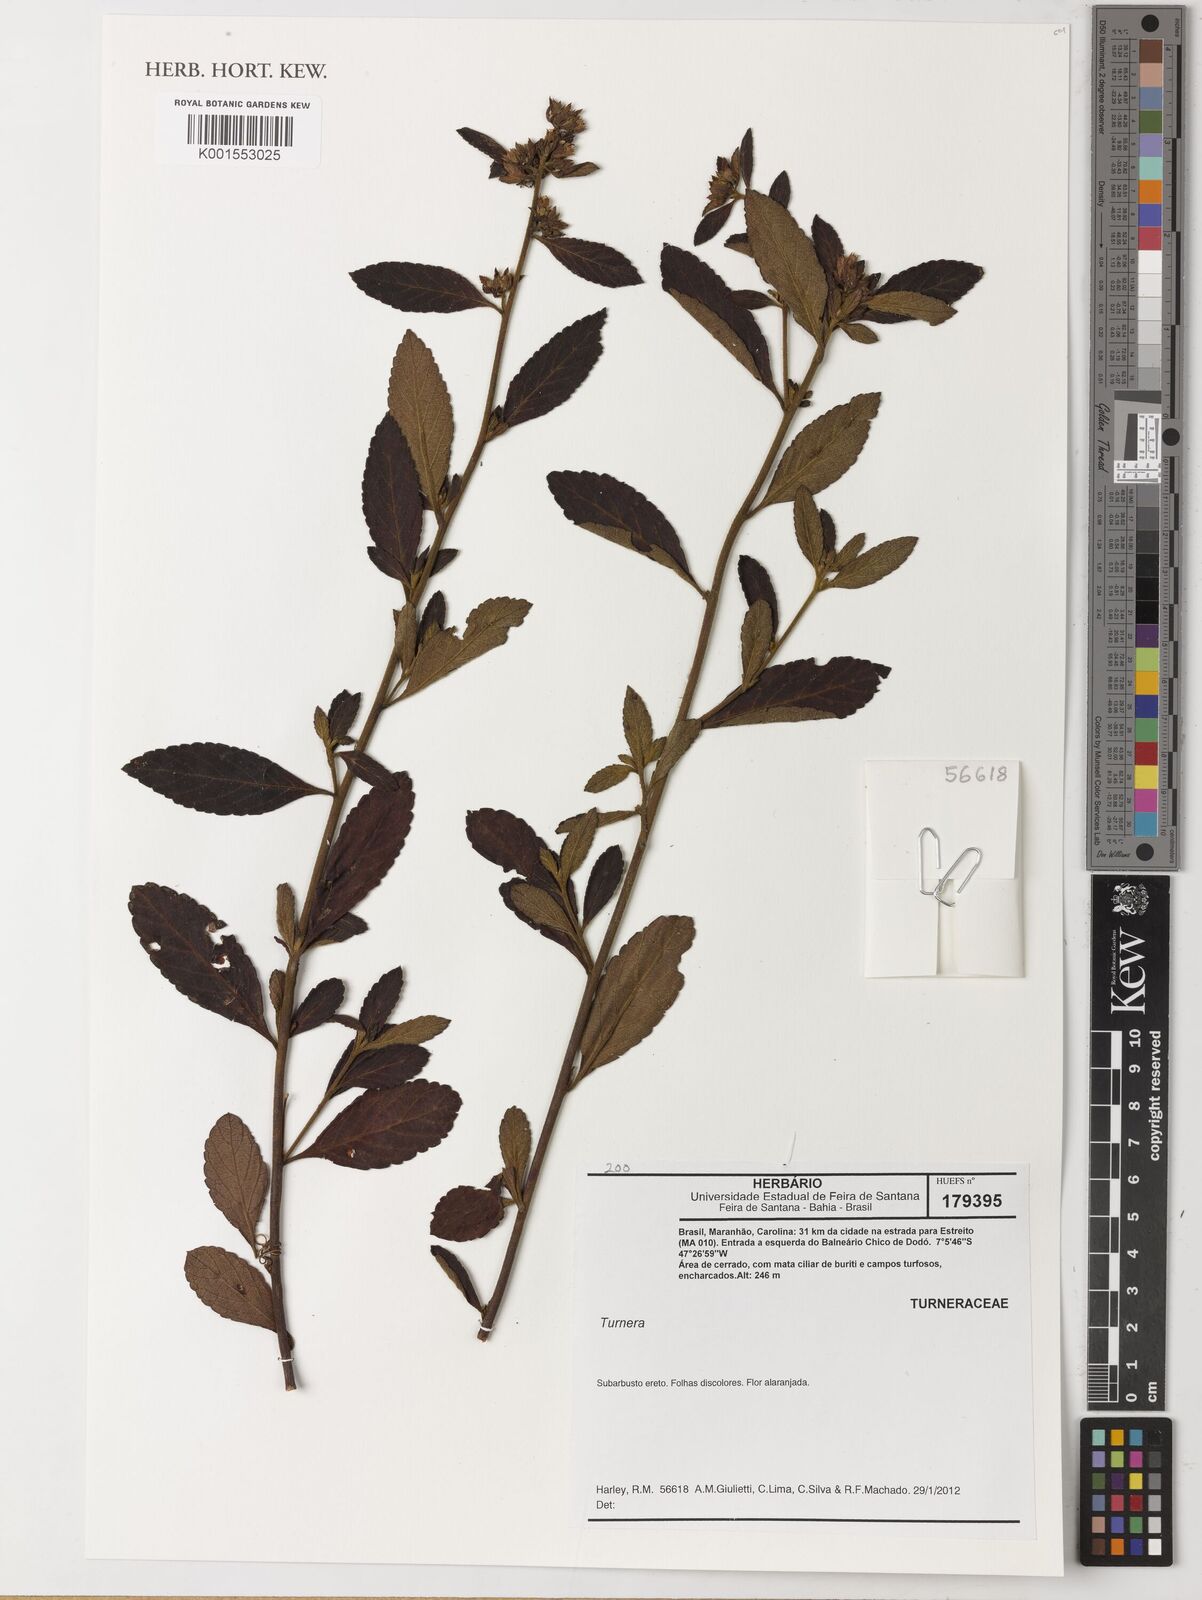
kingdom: Plantae
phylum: Tracheophyta
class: Magnoliopsida
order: Malpighiales
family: Turneraceae
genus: Turnera
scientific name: Turnera
